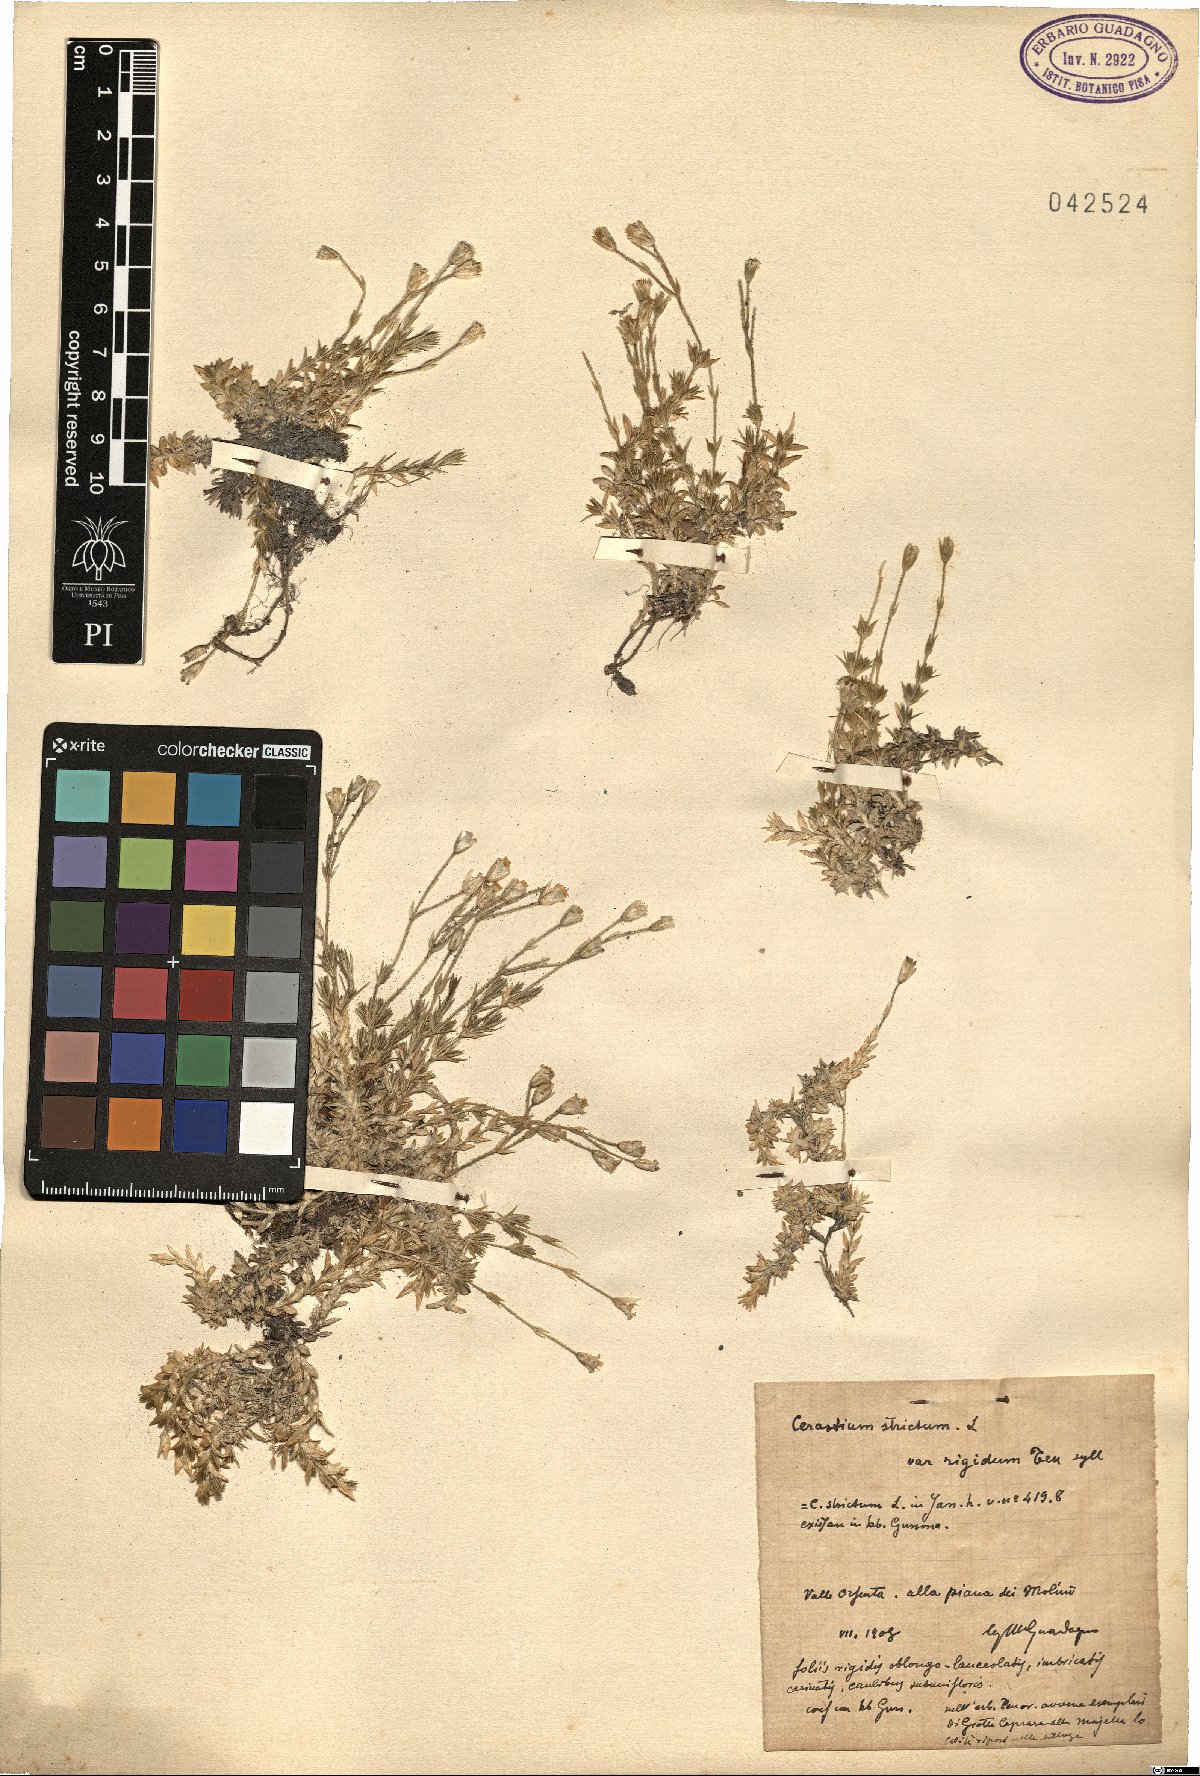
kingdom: Plantae
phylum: Tracheophyta
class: Magnoliopsida
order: Caryophyllales
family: Caryophyllaceae
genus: Cerastium
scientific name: Cerastium elongatum
